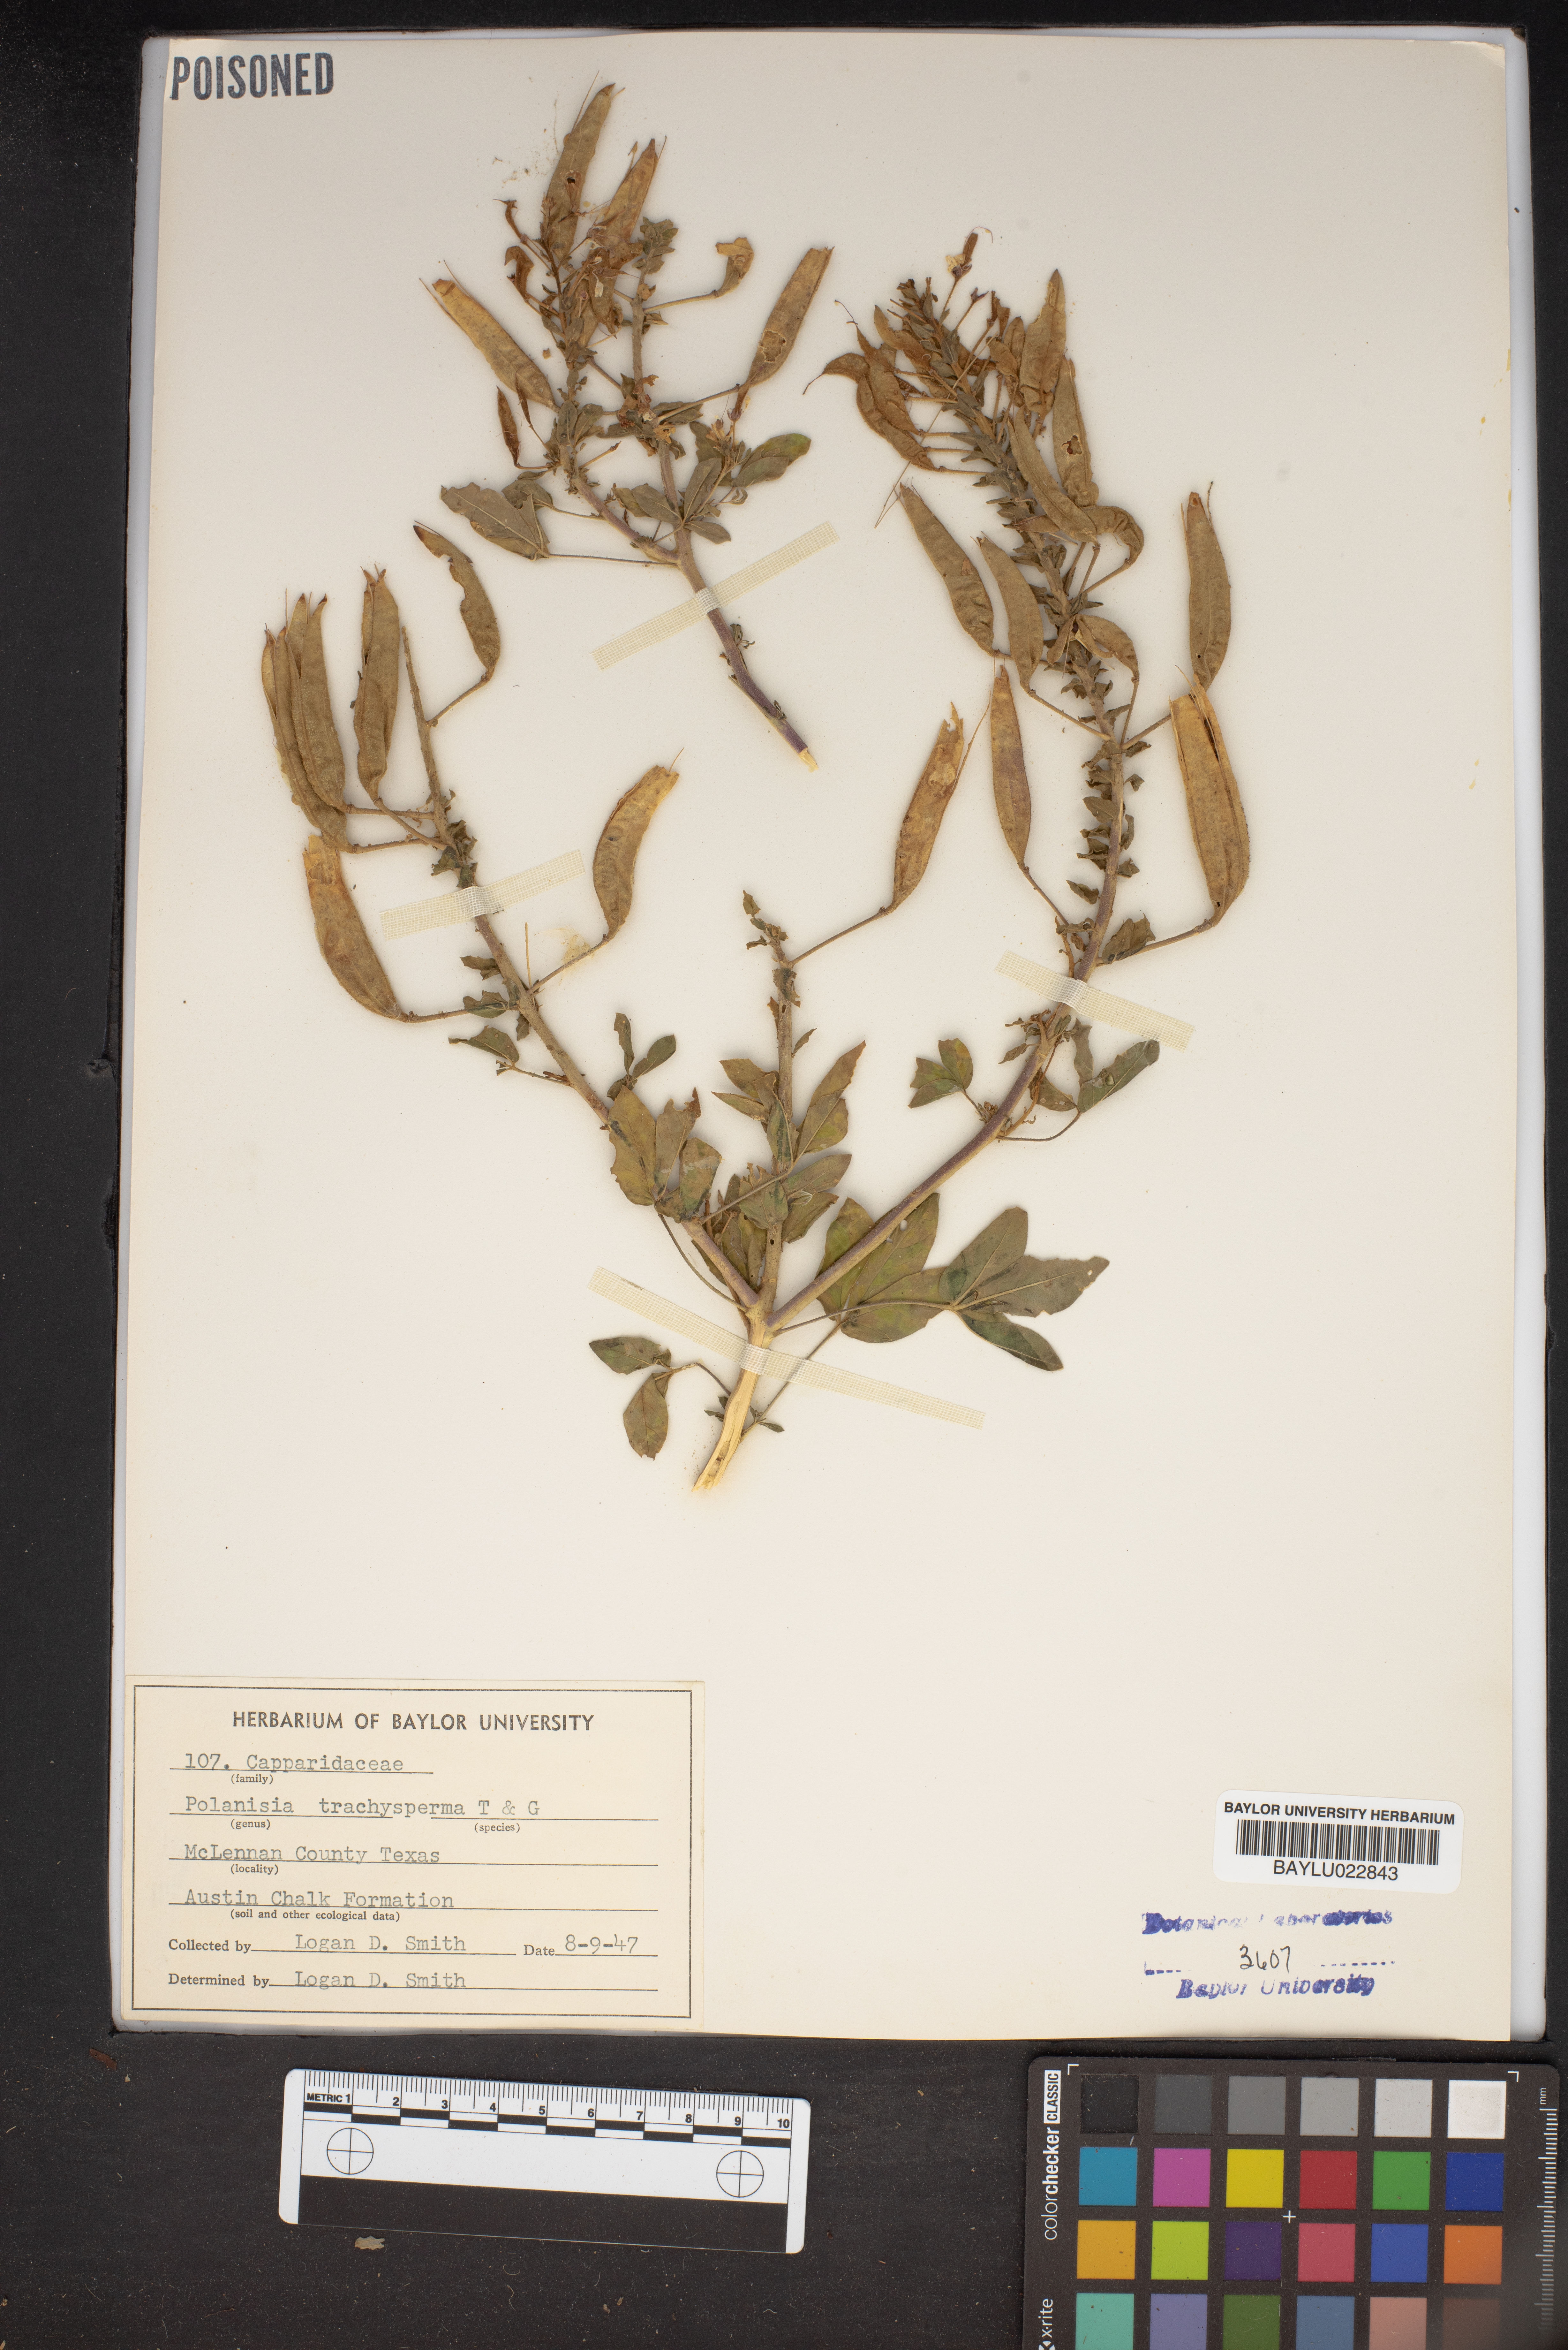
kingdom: Plantae
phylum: Tracheophyta
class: Magnoliopsida
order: Brassicales
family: Cleomaceae
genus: Polanisia
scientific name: Polanisia trachysperma
